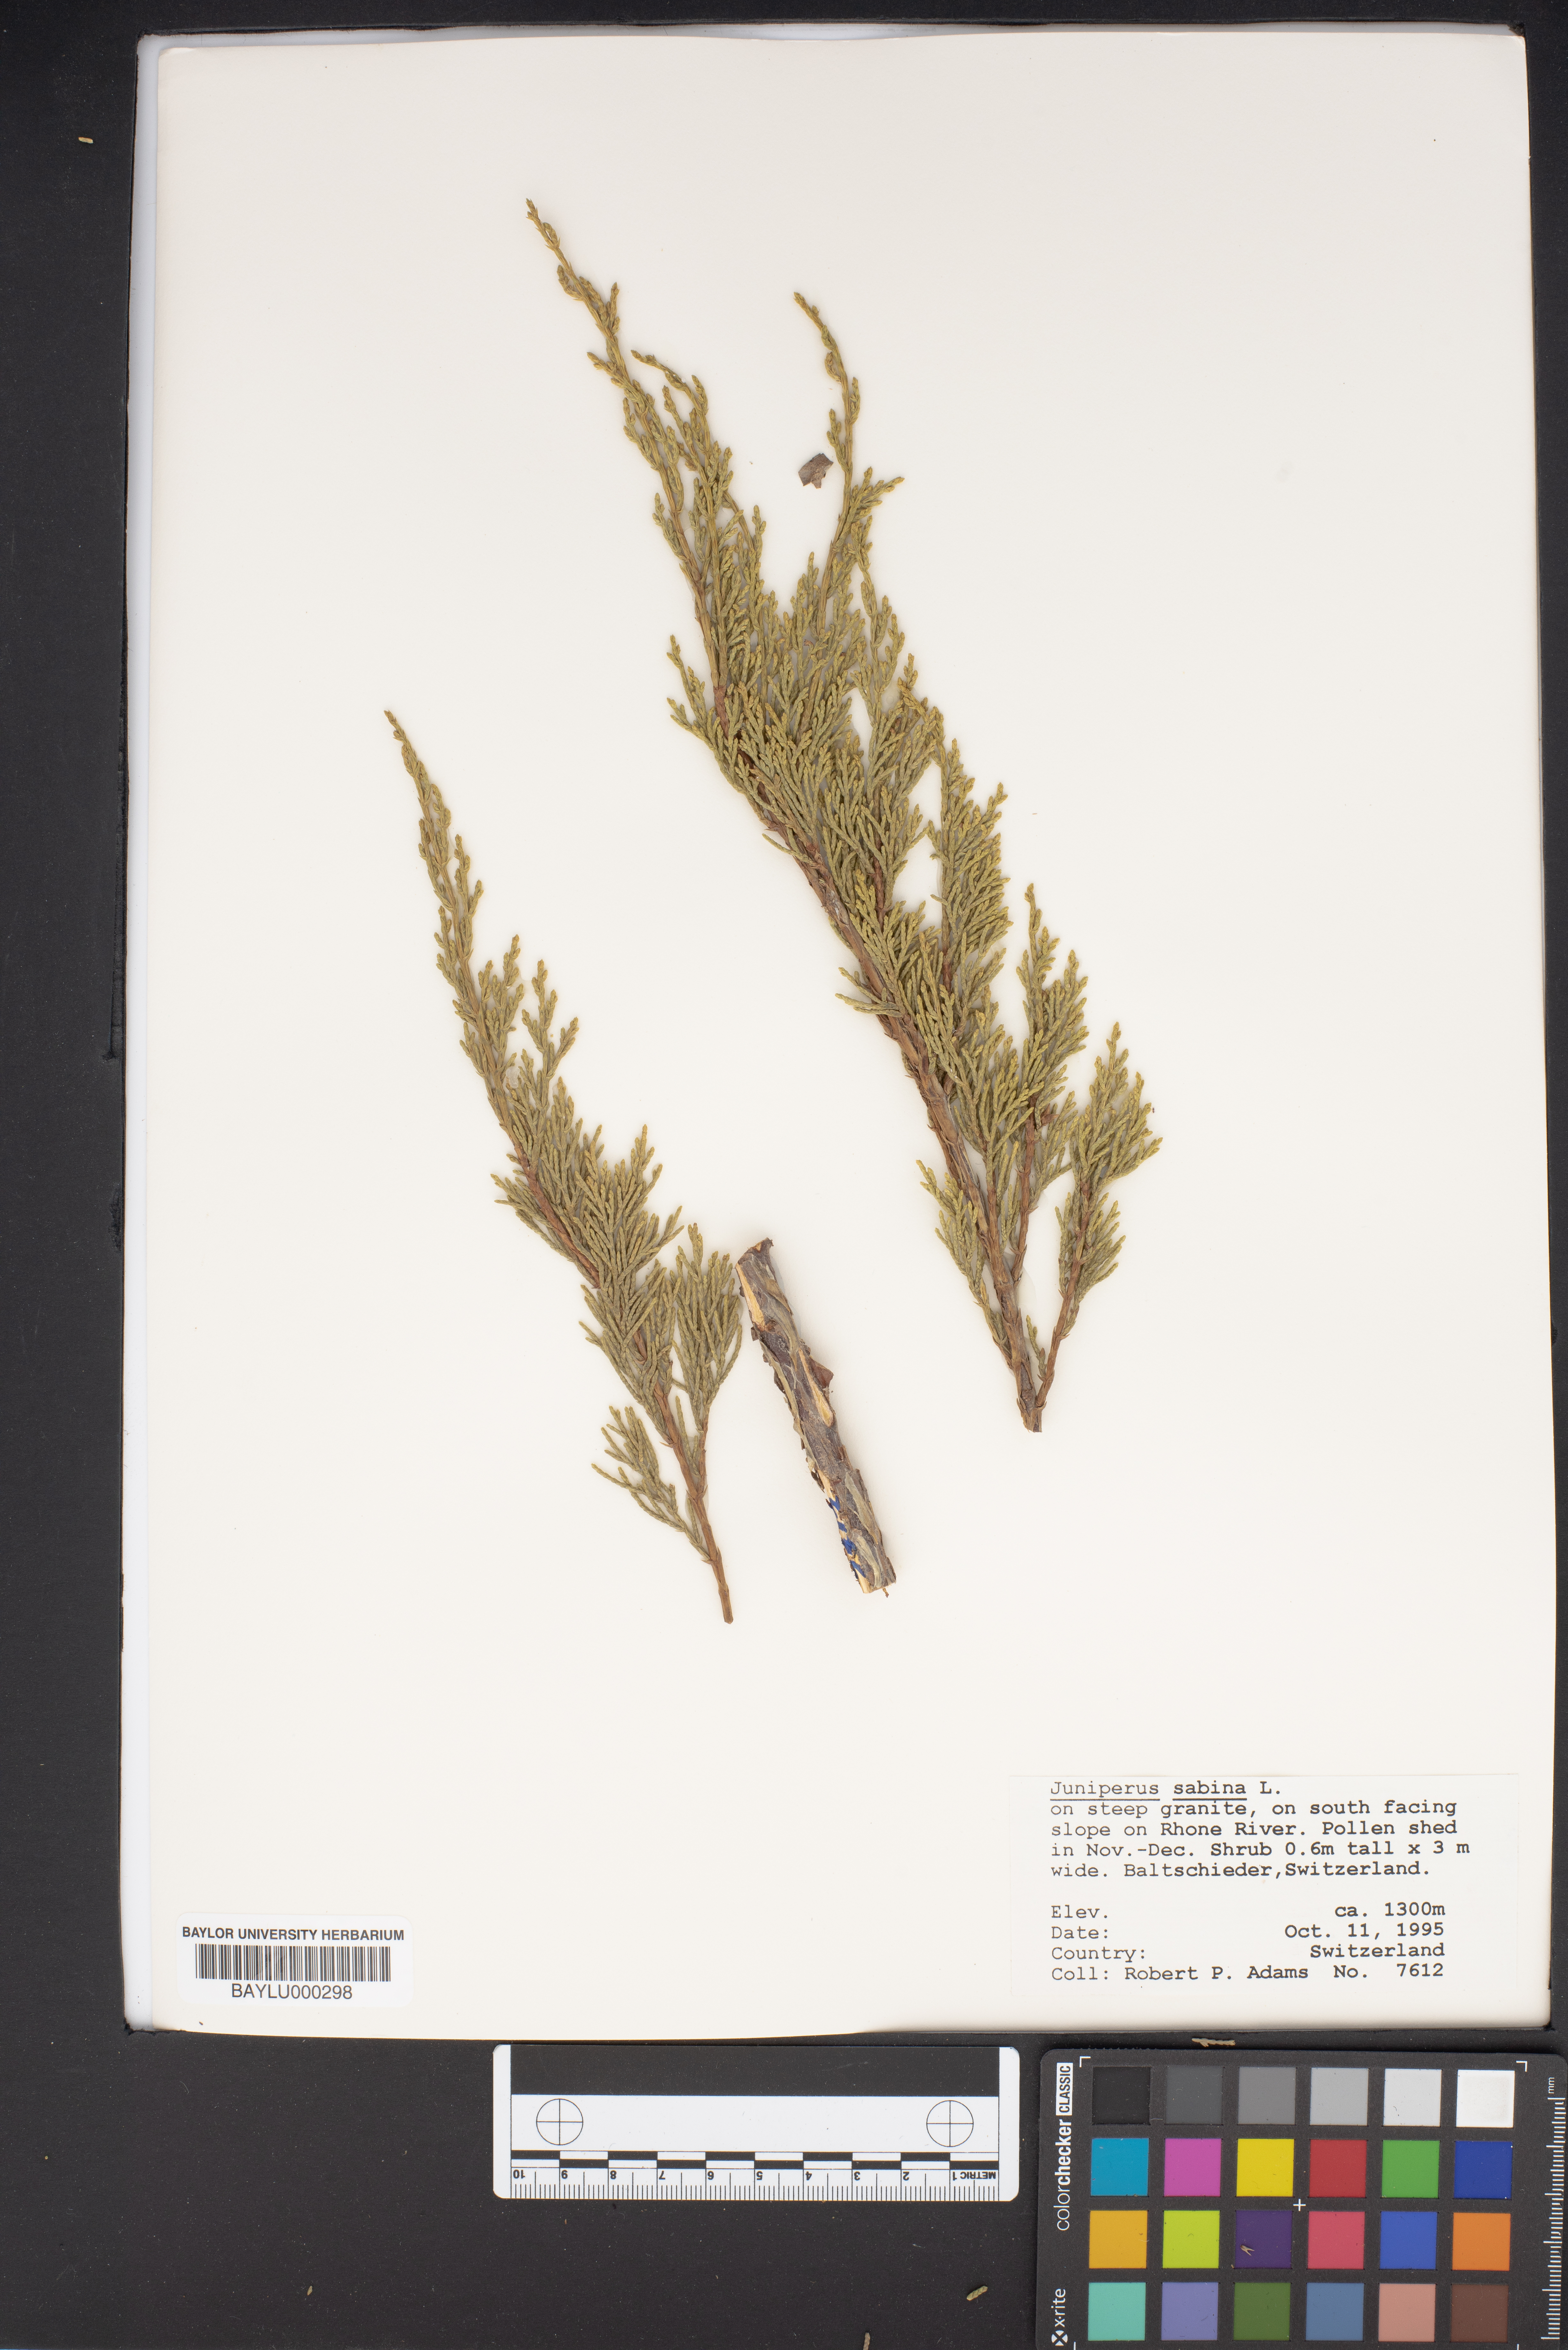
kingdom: Plantae
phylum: Tracheophyta
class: Pinopsida
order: Pinales
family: Cupressaceae
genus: Juniperus
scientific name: Juniperus sabina
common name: Savin
